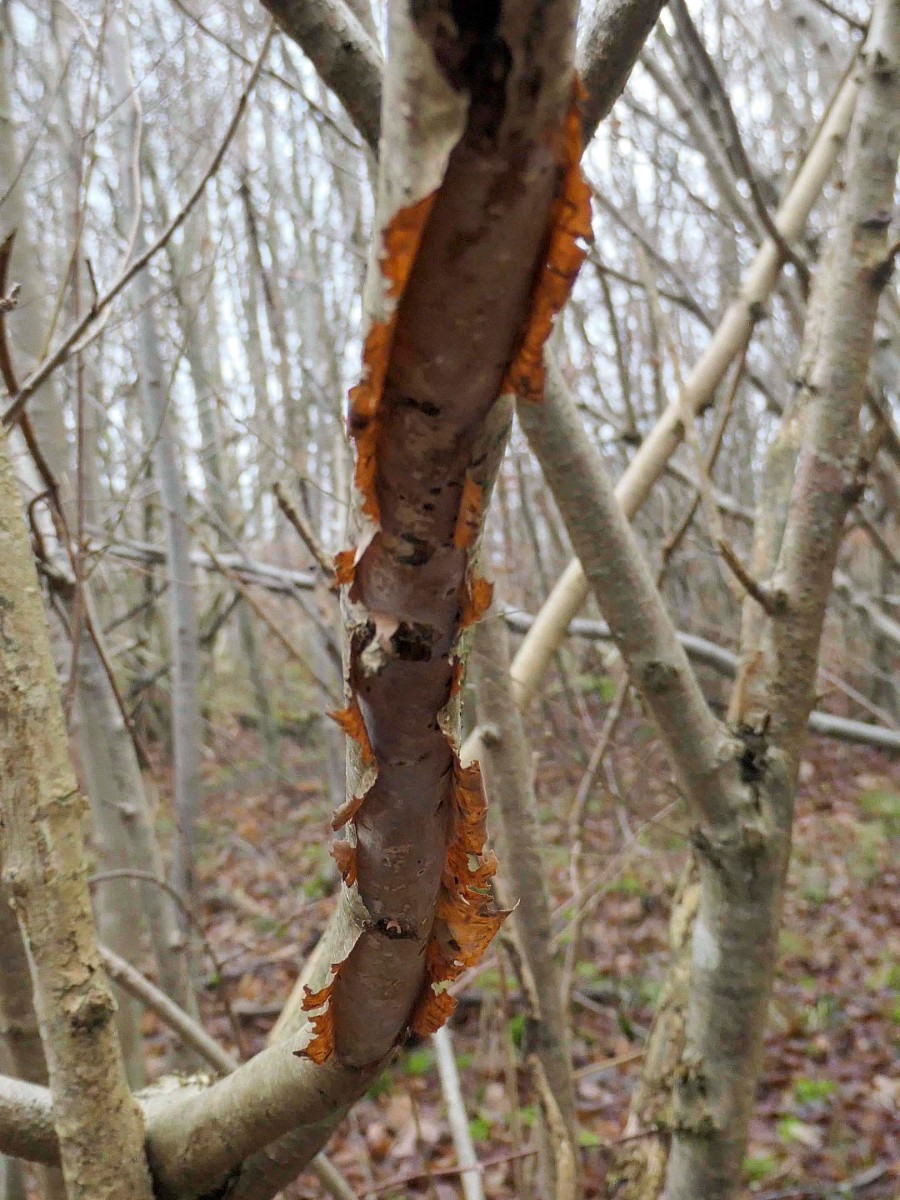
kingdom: Fungi
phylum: Basidiomycota
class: Agaricomycetes
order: Corticiales
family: Vuilleminiaceae
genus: Vuilleminia
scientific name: Vuilleminia coryli
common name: hassel-barksprænger
